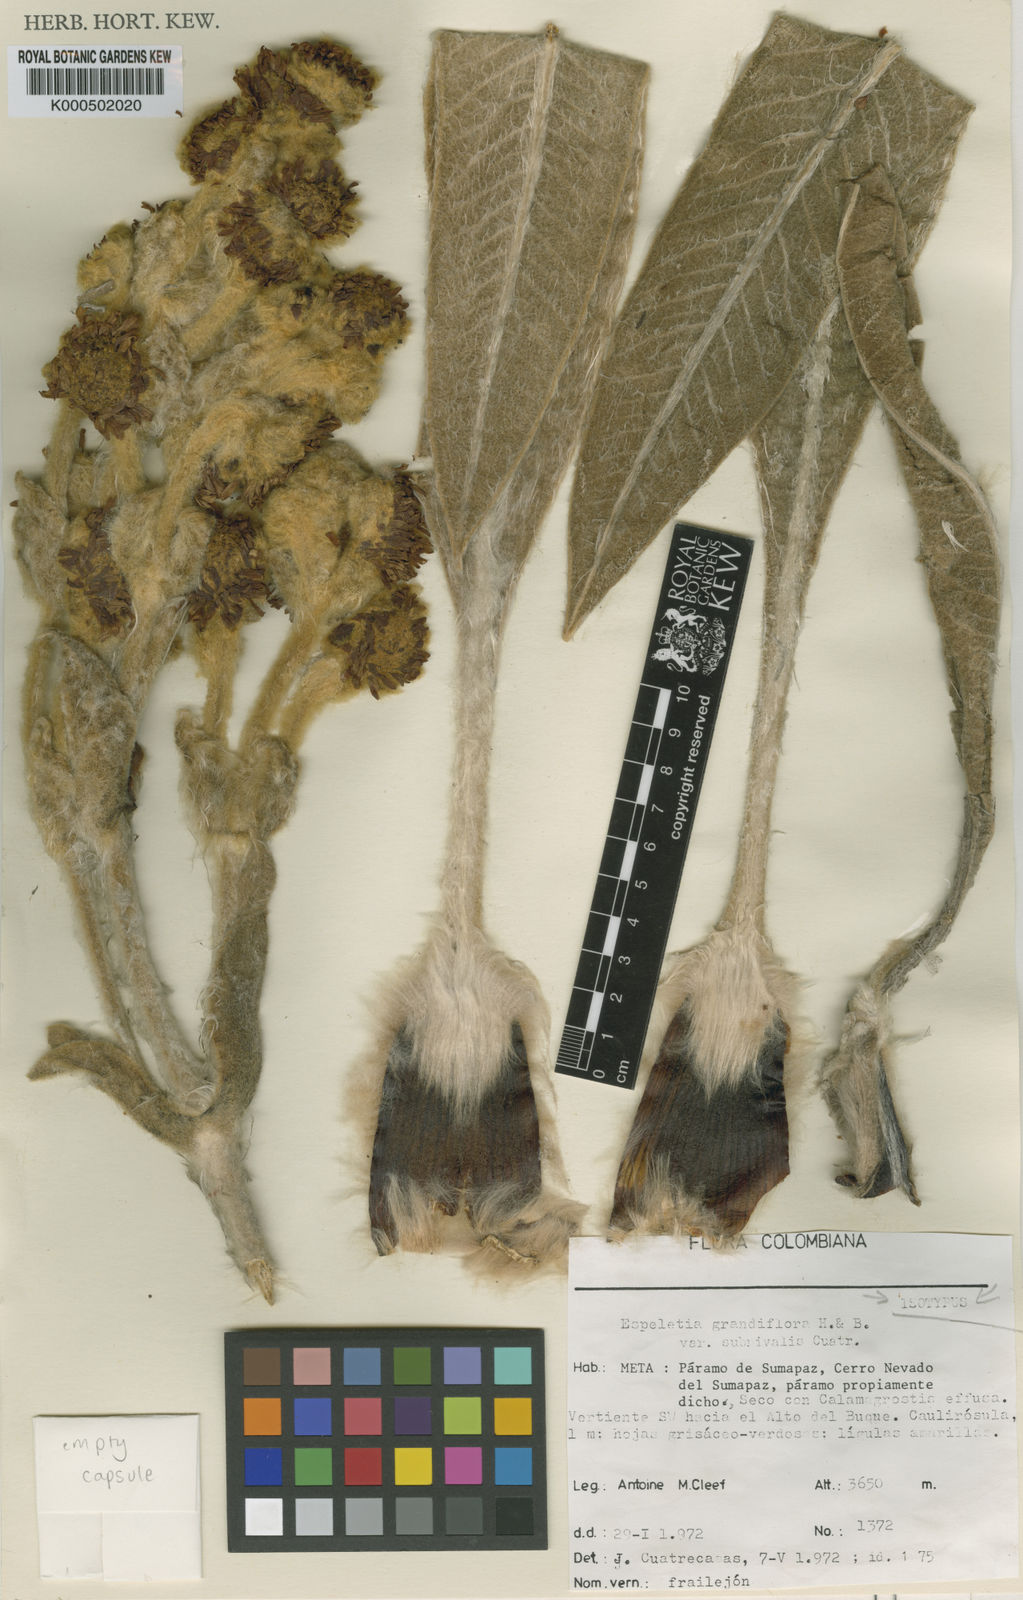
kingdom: Plantae
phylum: Tracheophyta
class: Magnoliopsida
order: Asterales
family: Asteraceae
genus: Espeletia
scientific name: Espeletia grandiflora
